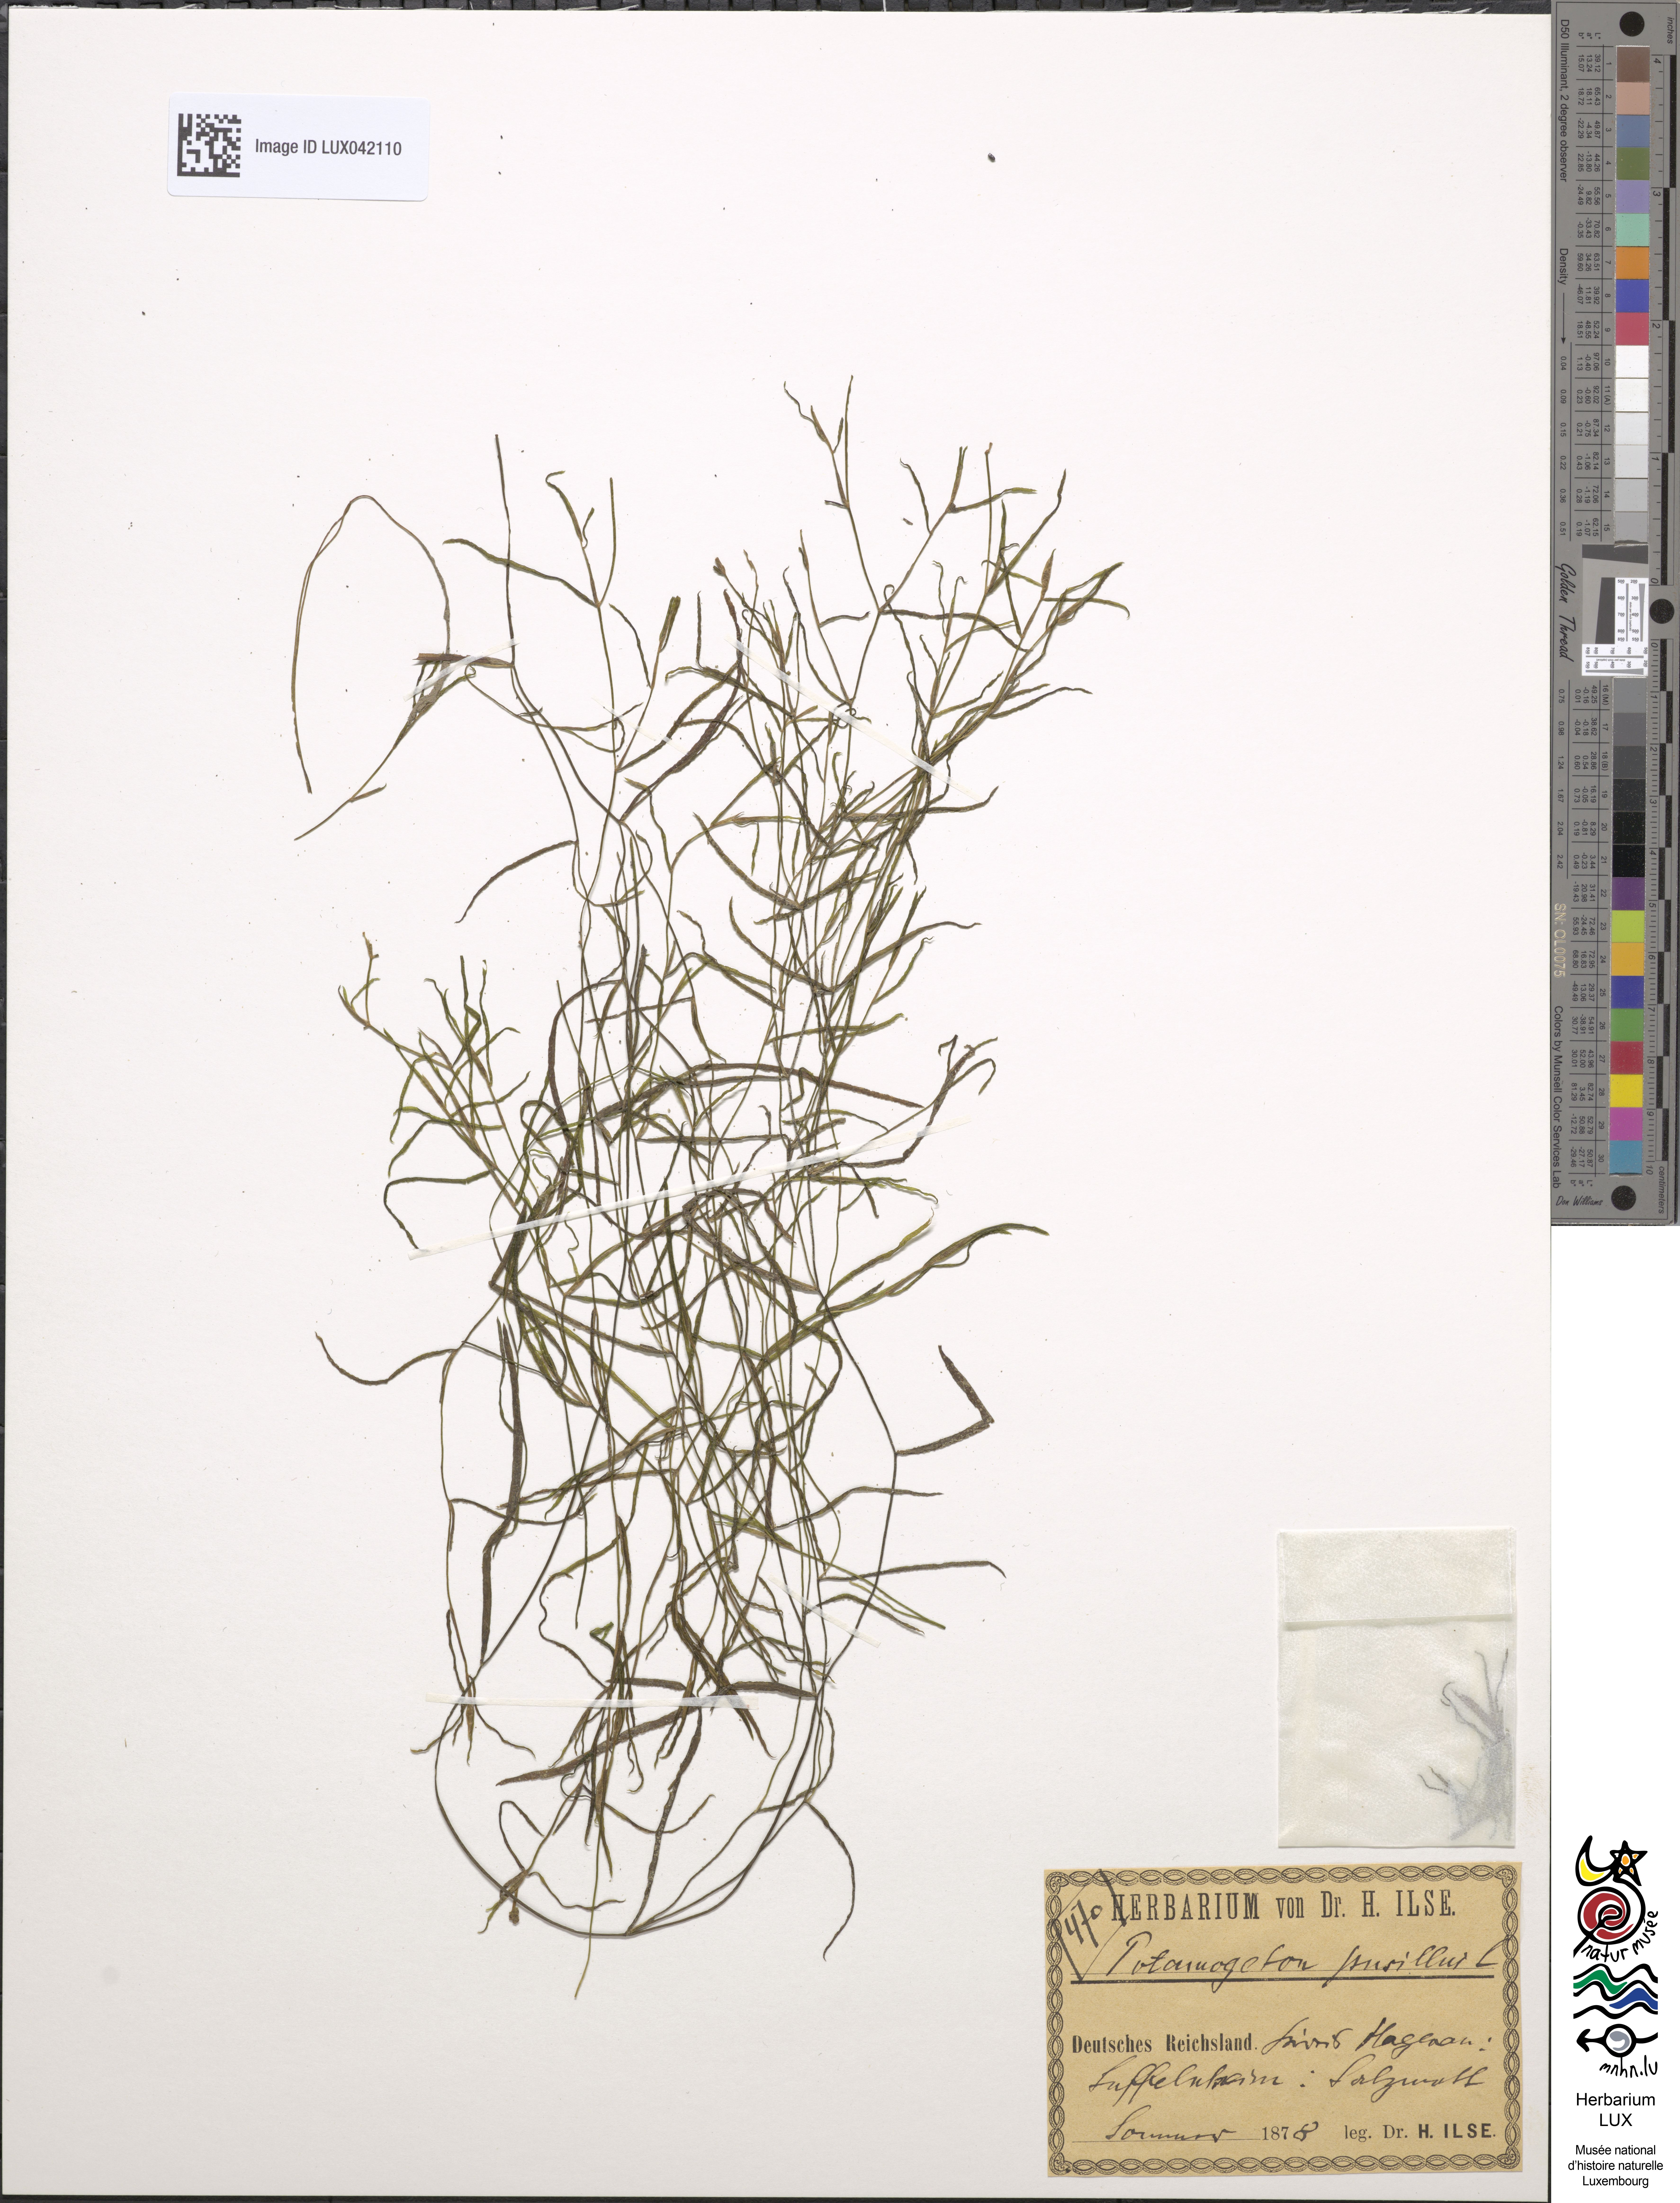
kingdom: Plantae
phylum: Tracheophyta
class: Liliopsida
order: Alismatales
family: Potamogetonaceae
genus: Potamogeton
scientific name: Potamogeton pusillus
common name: Lesser pondweed
